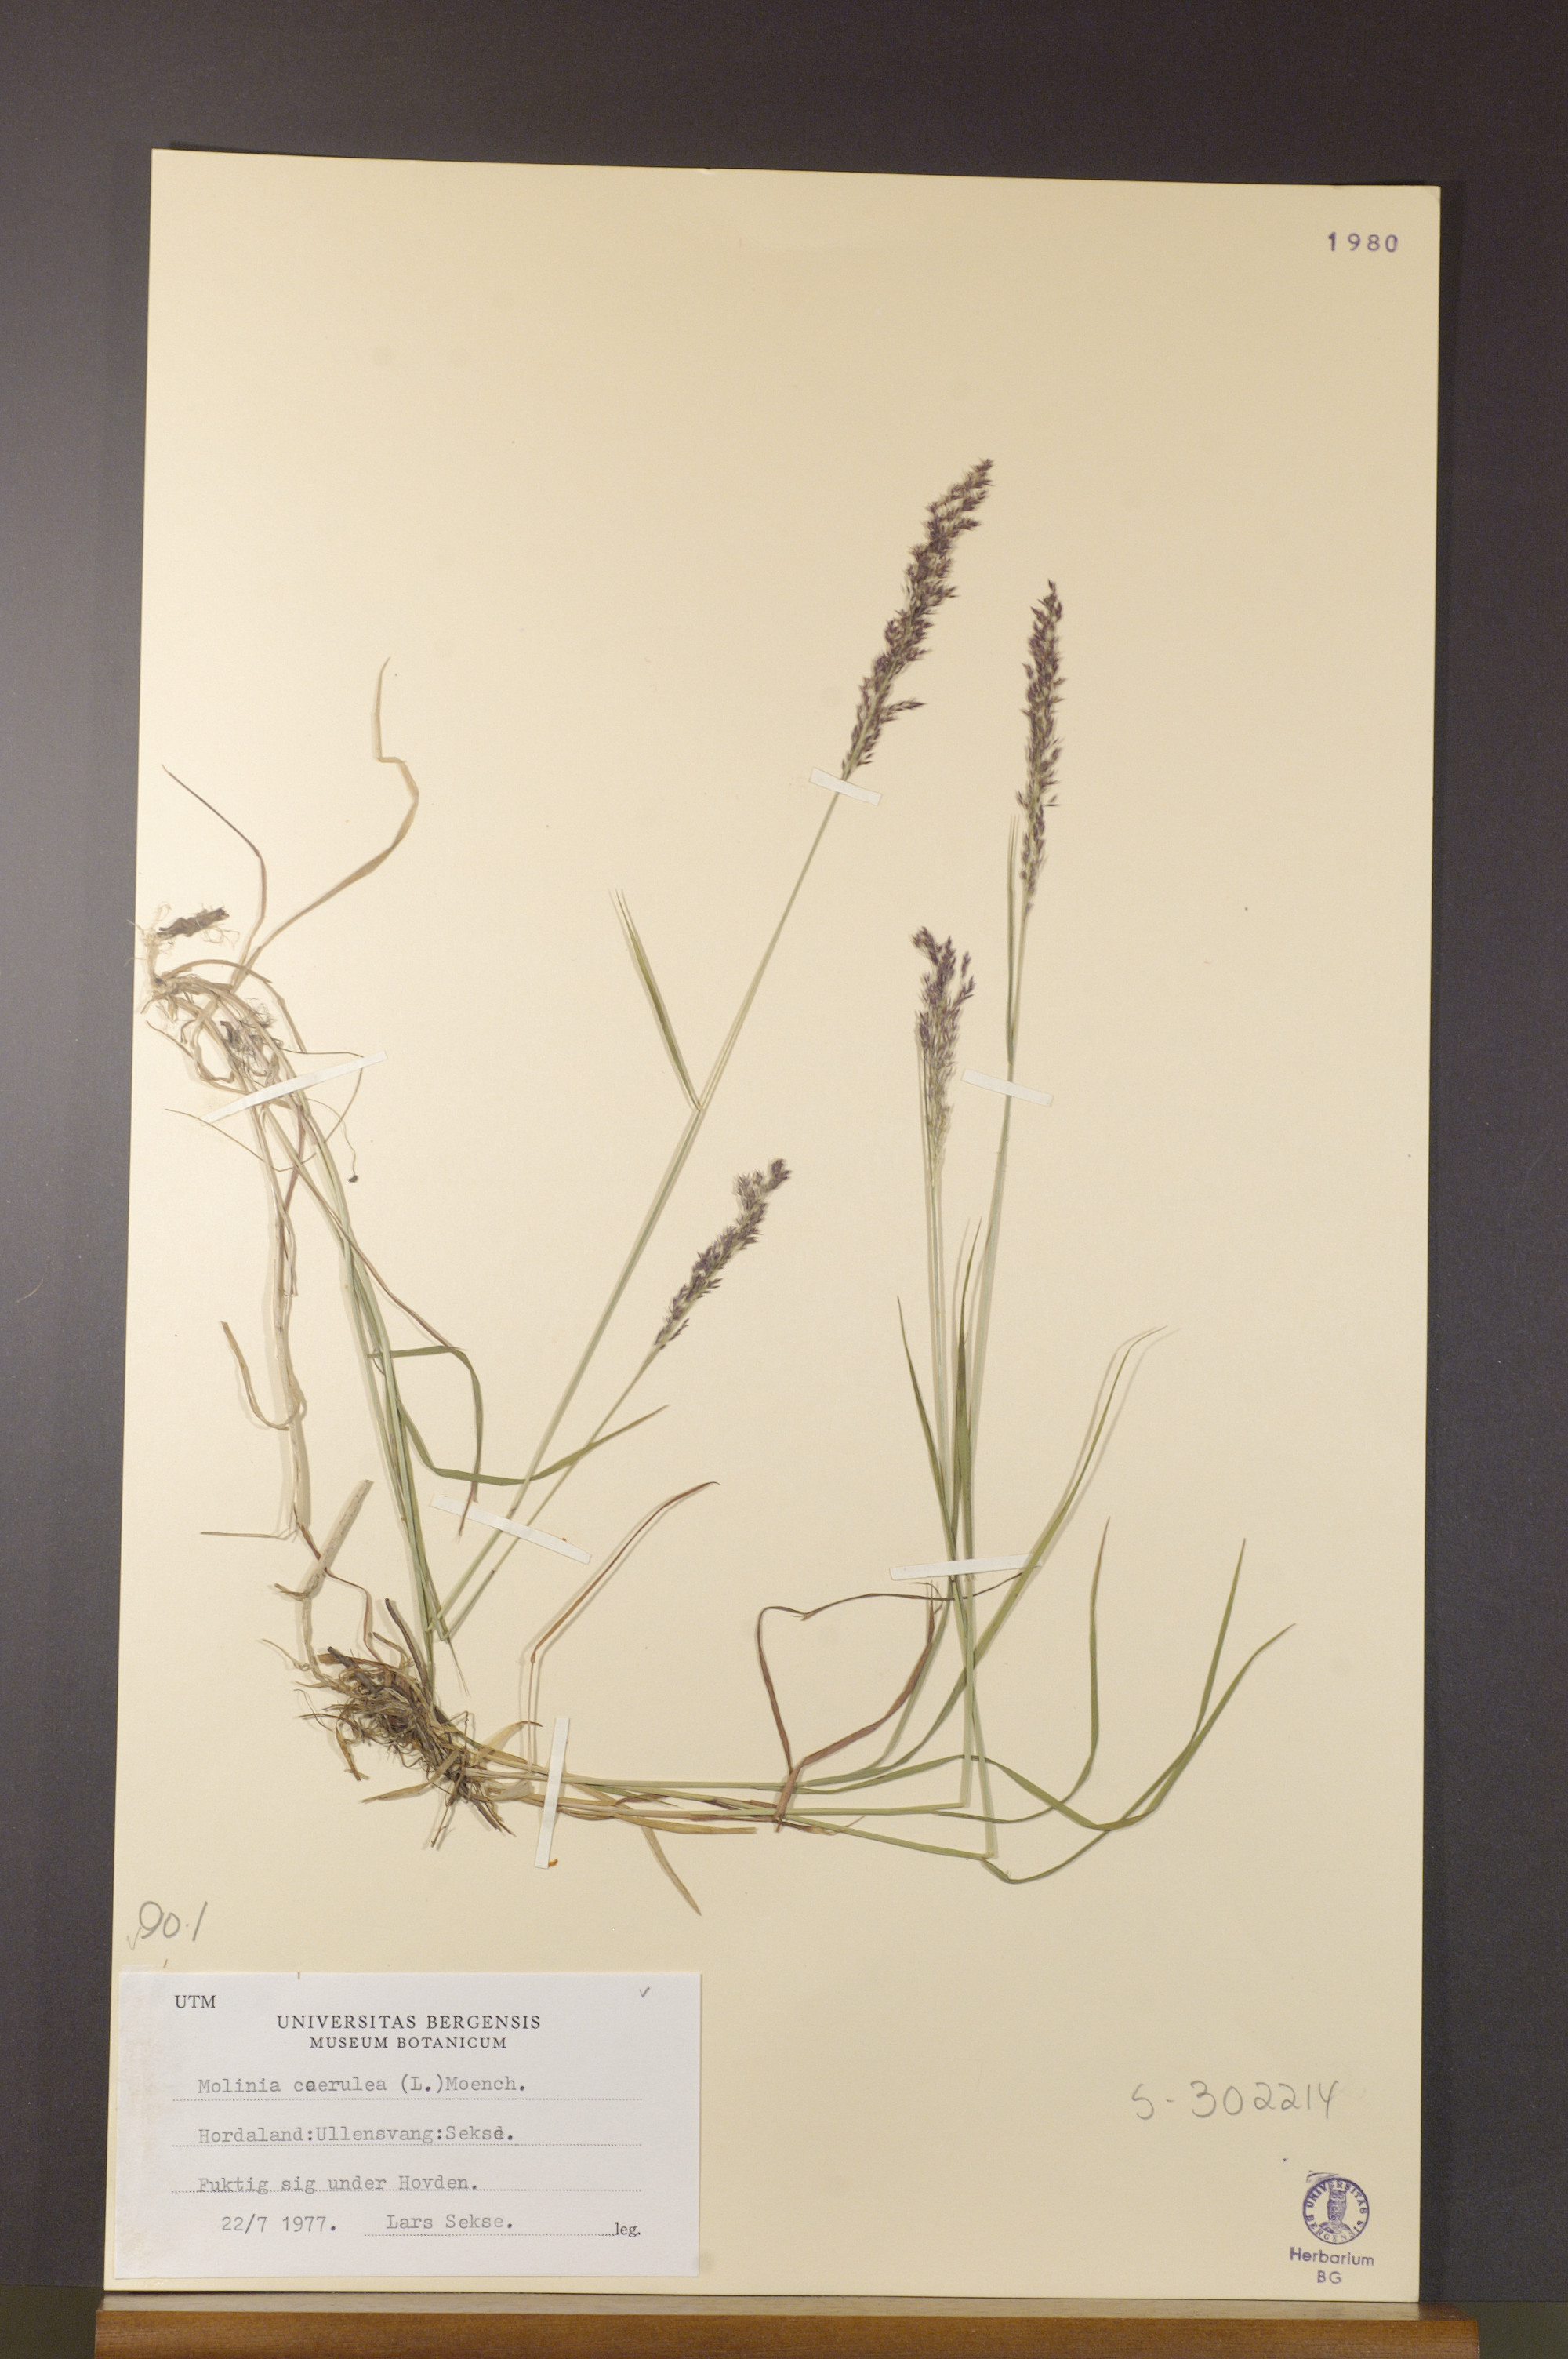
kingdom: Plantae
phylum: Tracheophyta
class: Liliopsida
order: Poales
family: Poaceae
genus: Molinia
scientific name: Molinia caerulea
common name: Purple moor-grass
